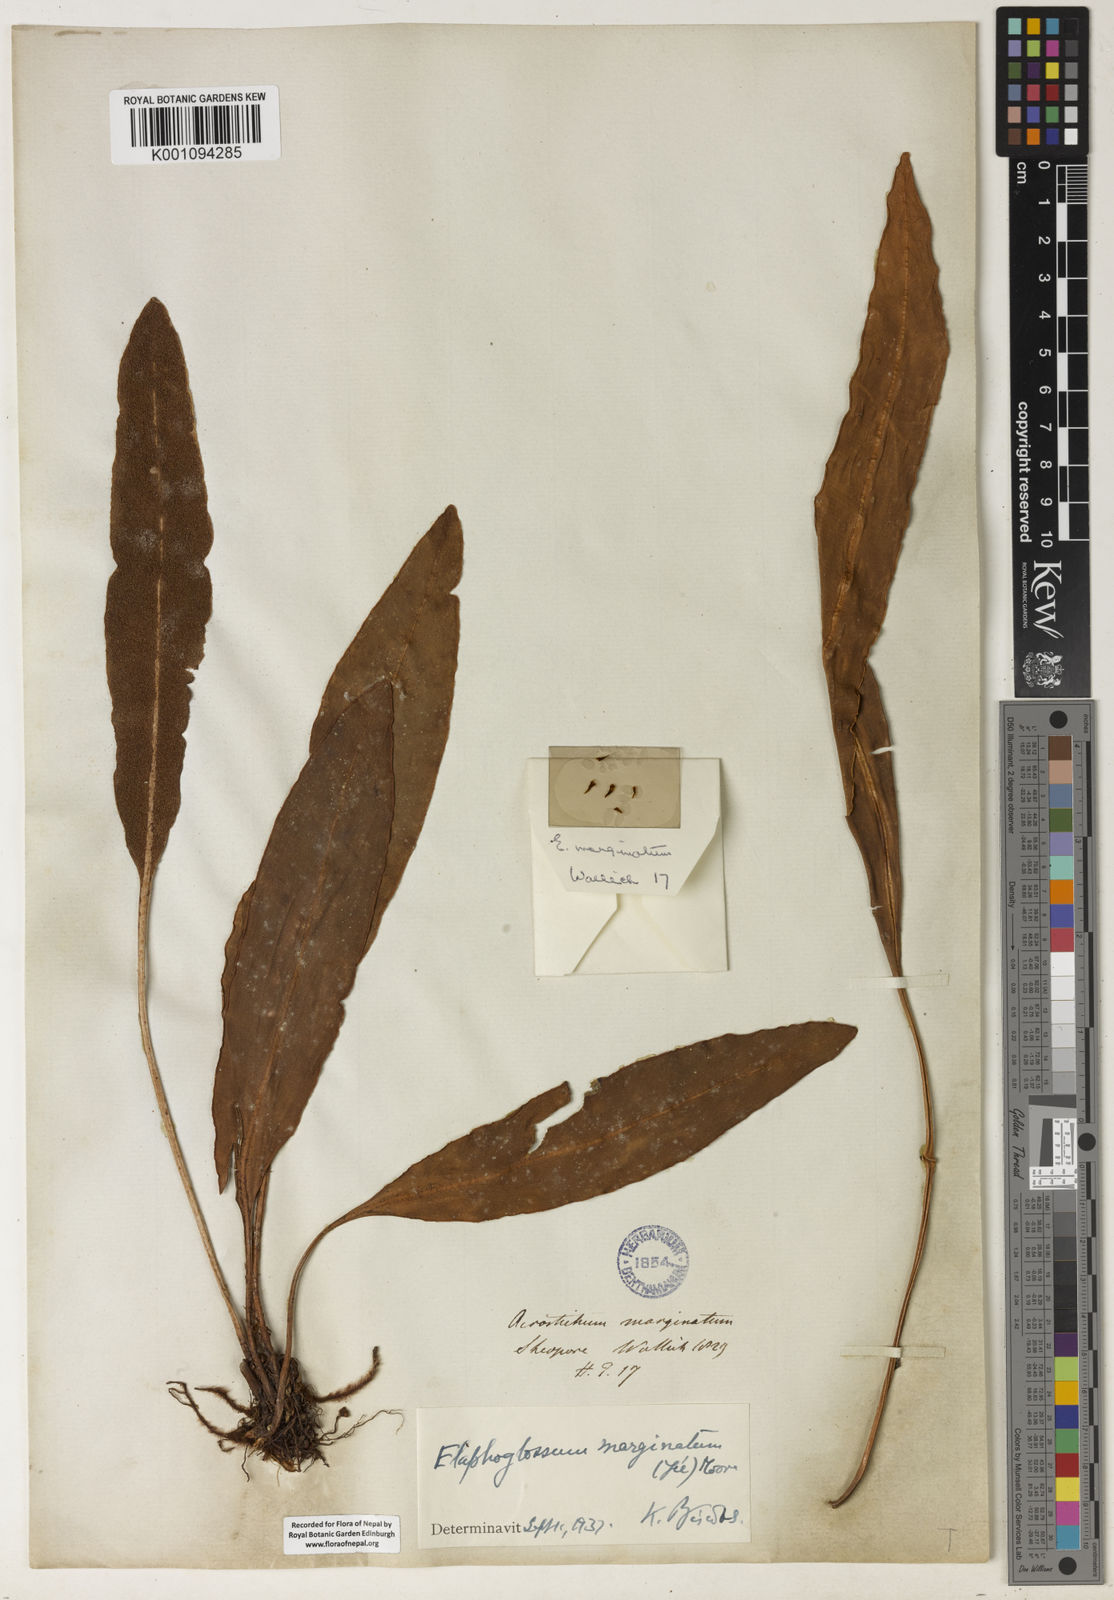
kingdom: Plantae
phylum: Tracheophyta
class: Polypodiopsida
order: Polypodiales
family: Dryopteridaceae
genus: Elaphoglossum
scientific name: Elaphoglossum
